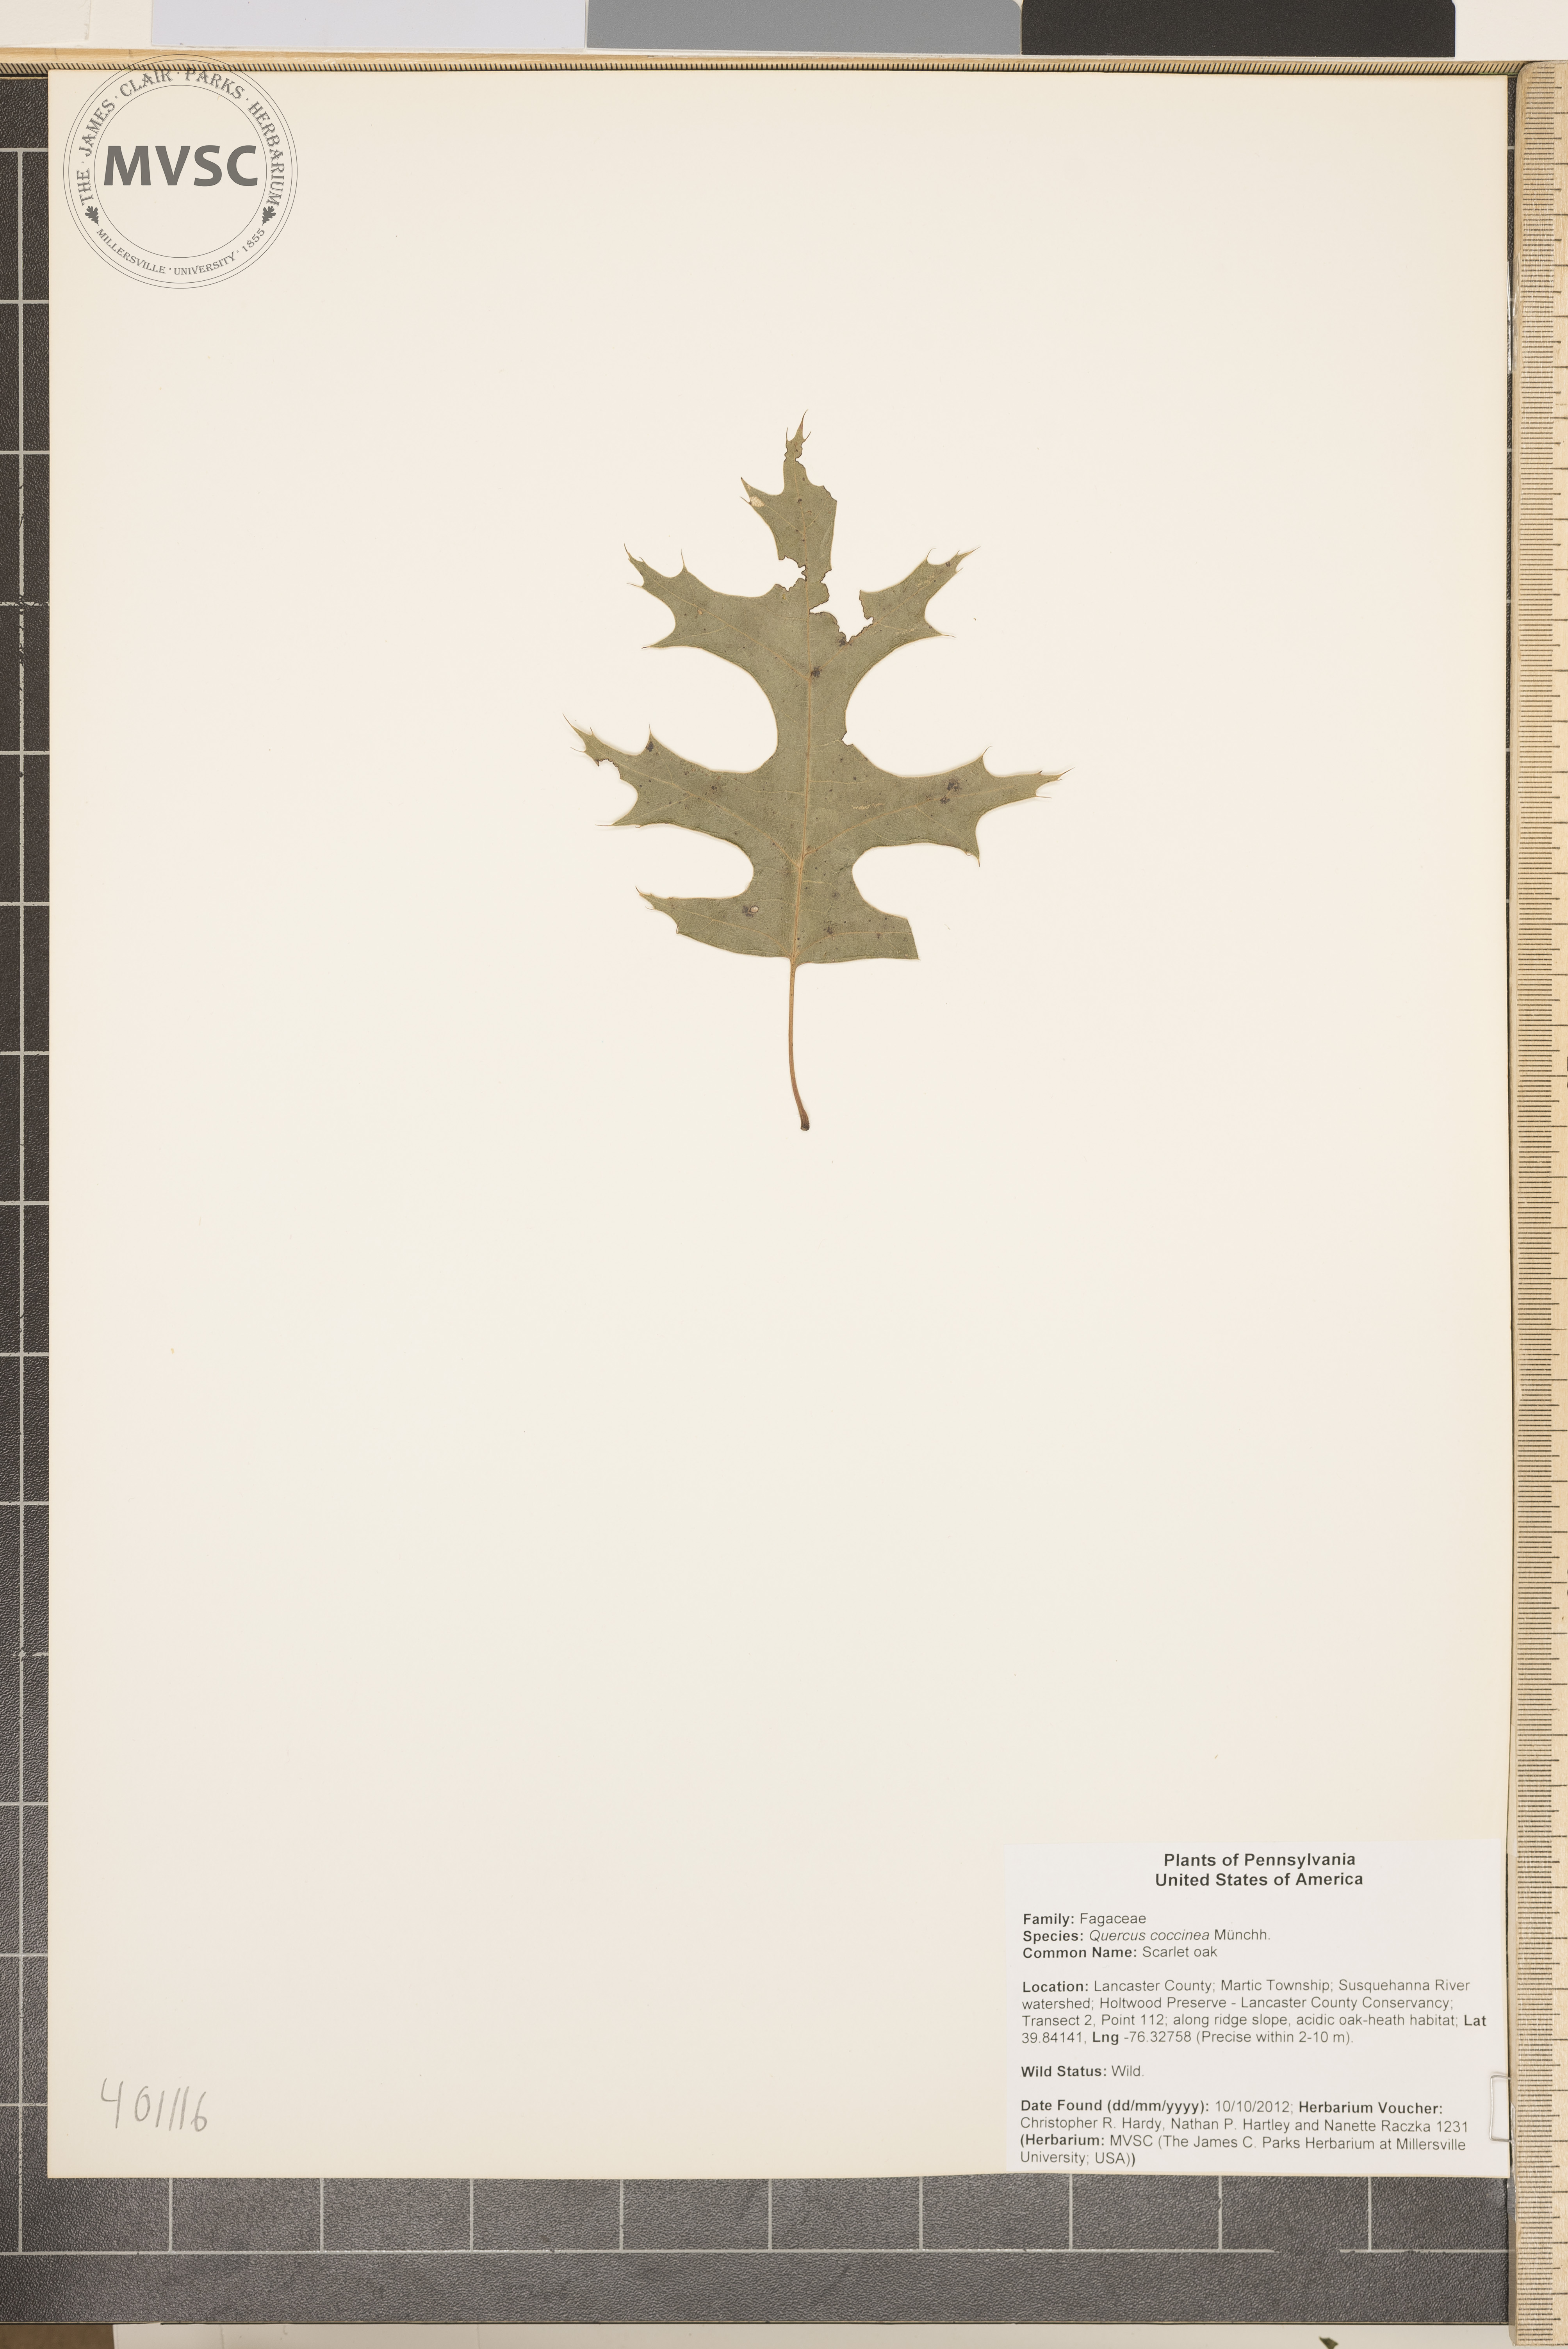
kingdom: Plantae
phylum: Tracheophyta
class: Magnoliopsida
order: Fagales
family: Fagaceae
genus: Quercus
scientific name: Quercus coccinea
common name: Scarlet oak
